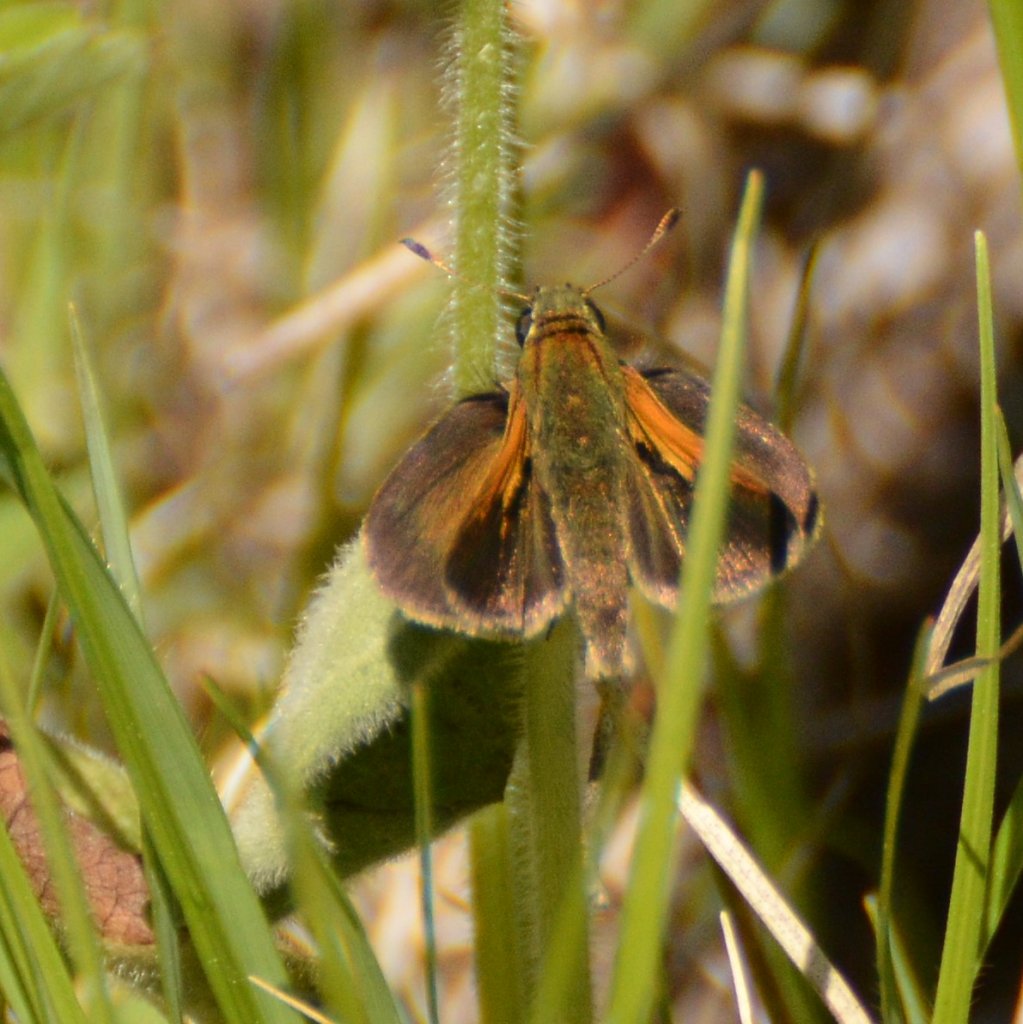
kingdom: Animalia
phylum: Arthropoda
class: Insecta
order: Lepidoptera
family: Hesperiidae
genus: Polites
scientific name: Polites themistocles
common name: Tawny-edged Skipper
